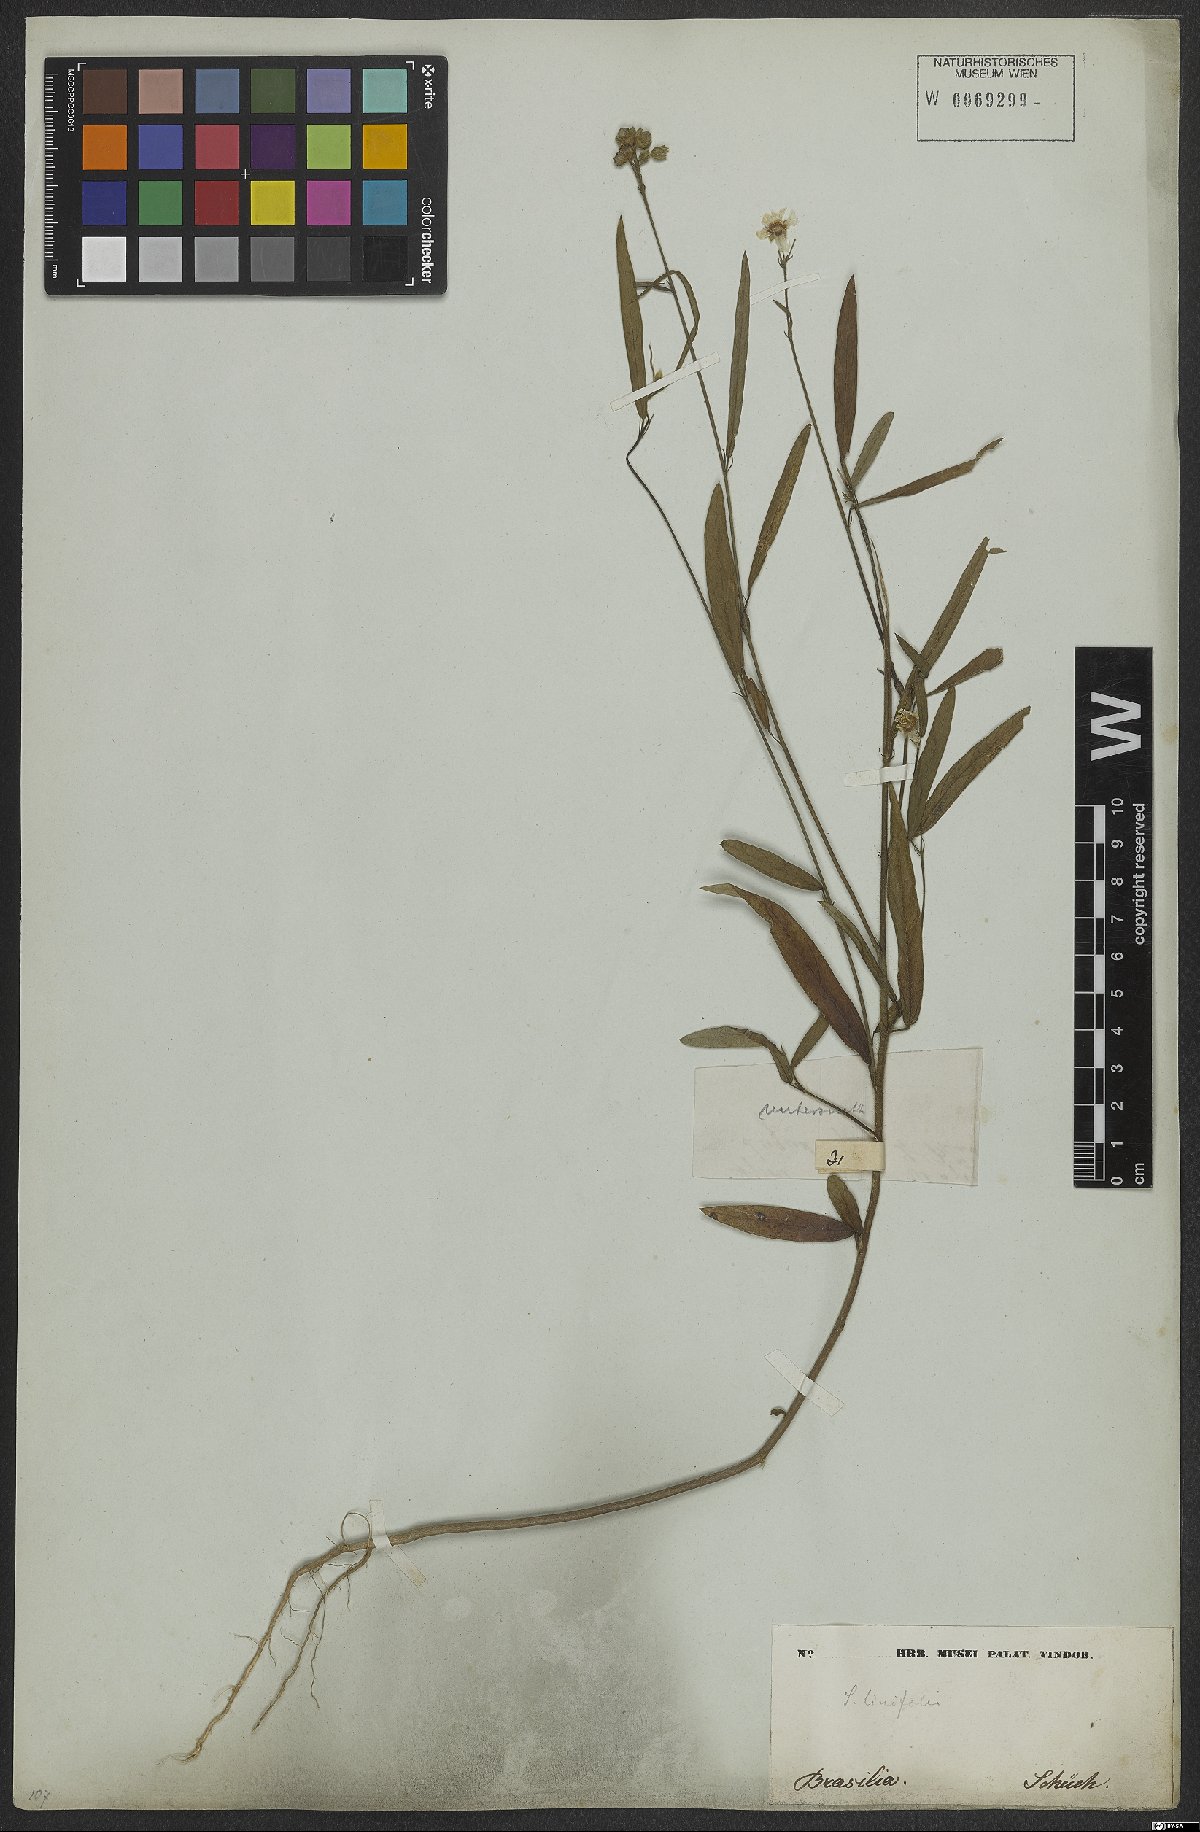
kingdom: Plantae
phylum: Tracheophyta
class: Magnoliopsida
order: Malvales
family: Malvaceae
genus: Sida
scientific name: Sida linifolia
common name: Flaxleaf fanpetals
